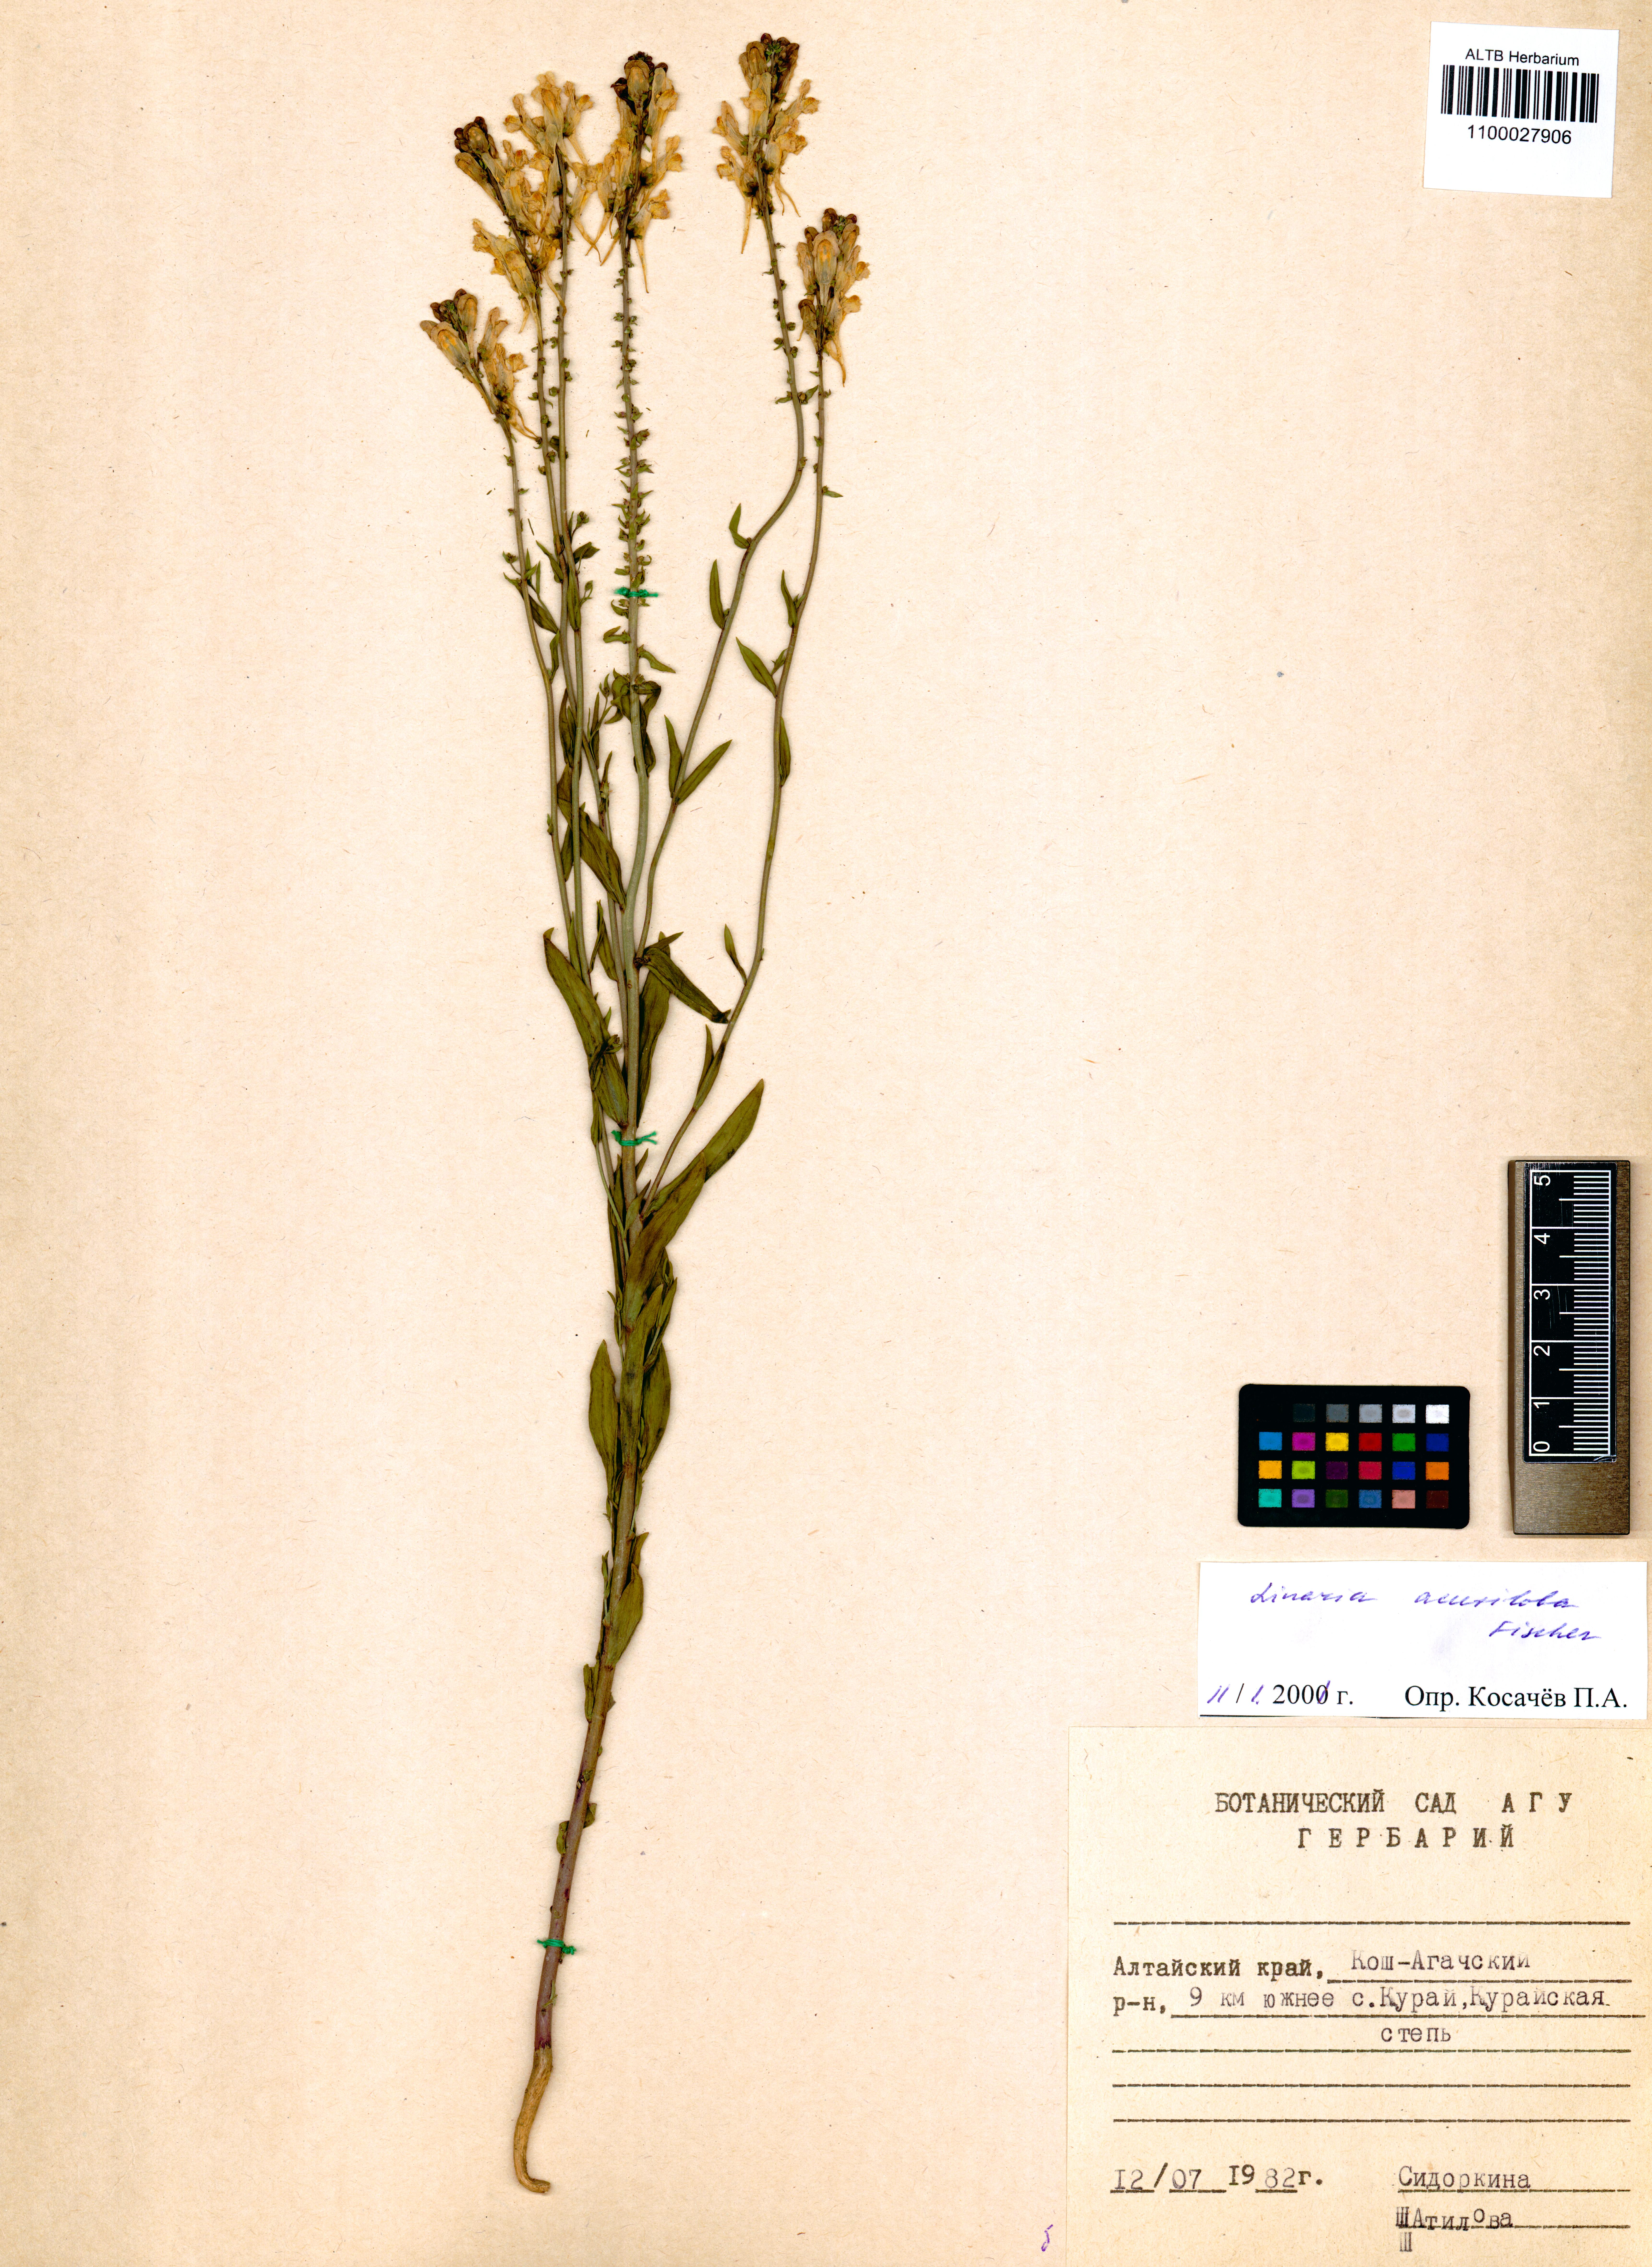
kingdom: Plantae
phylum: Tracheophyta
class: Magnoliopsida
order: Lamiales
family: Plantaginaceae
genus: Linaria
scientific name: Linaria acutiloba
